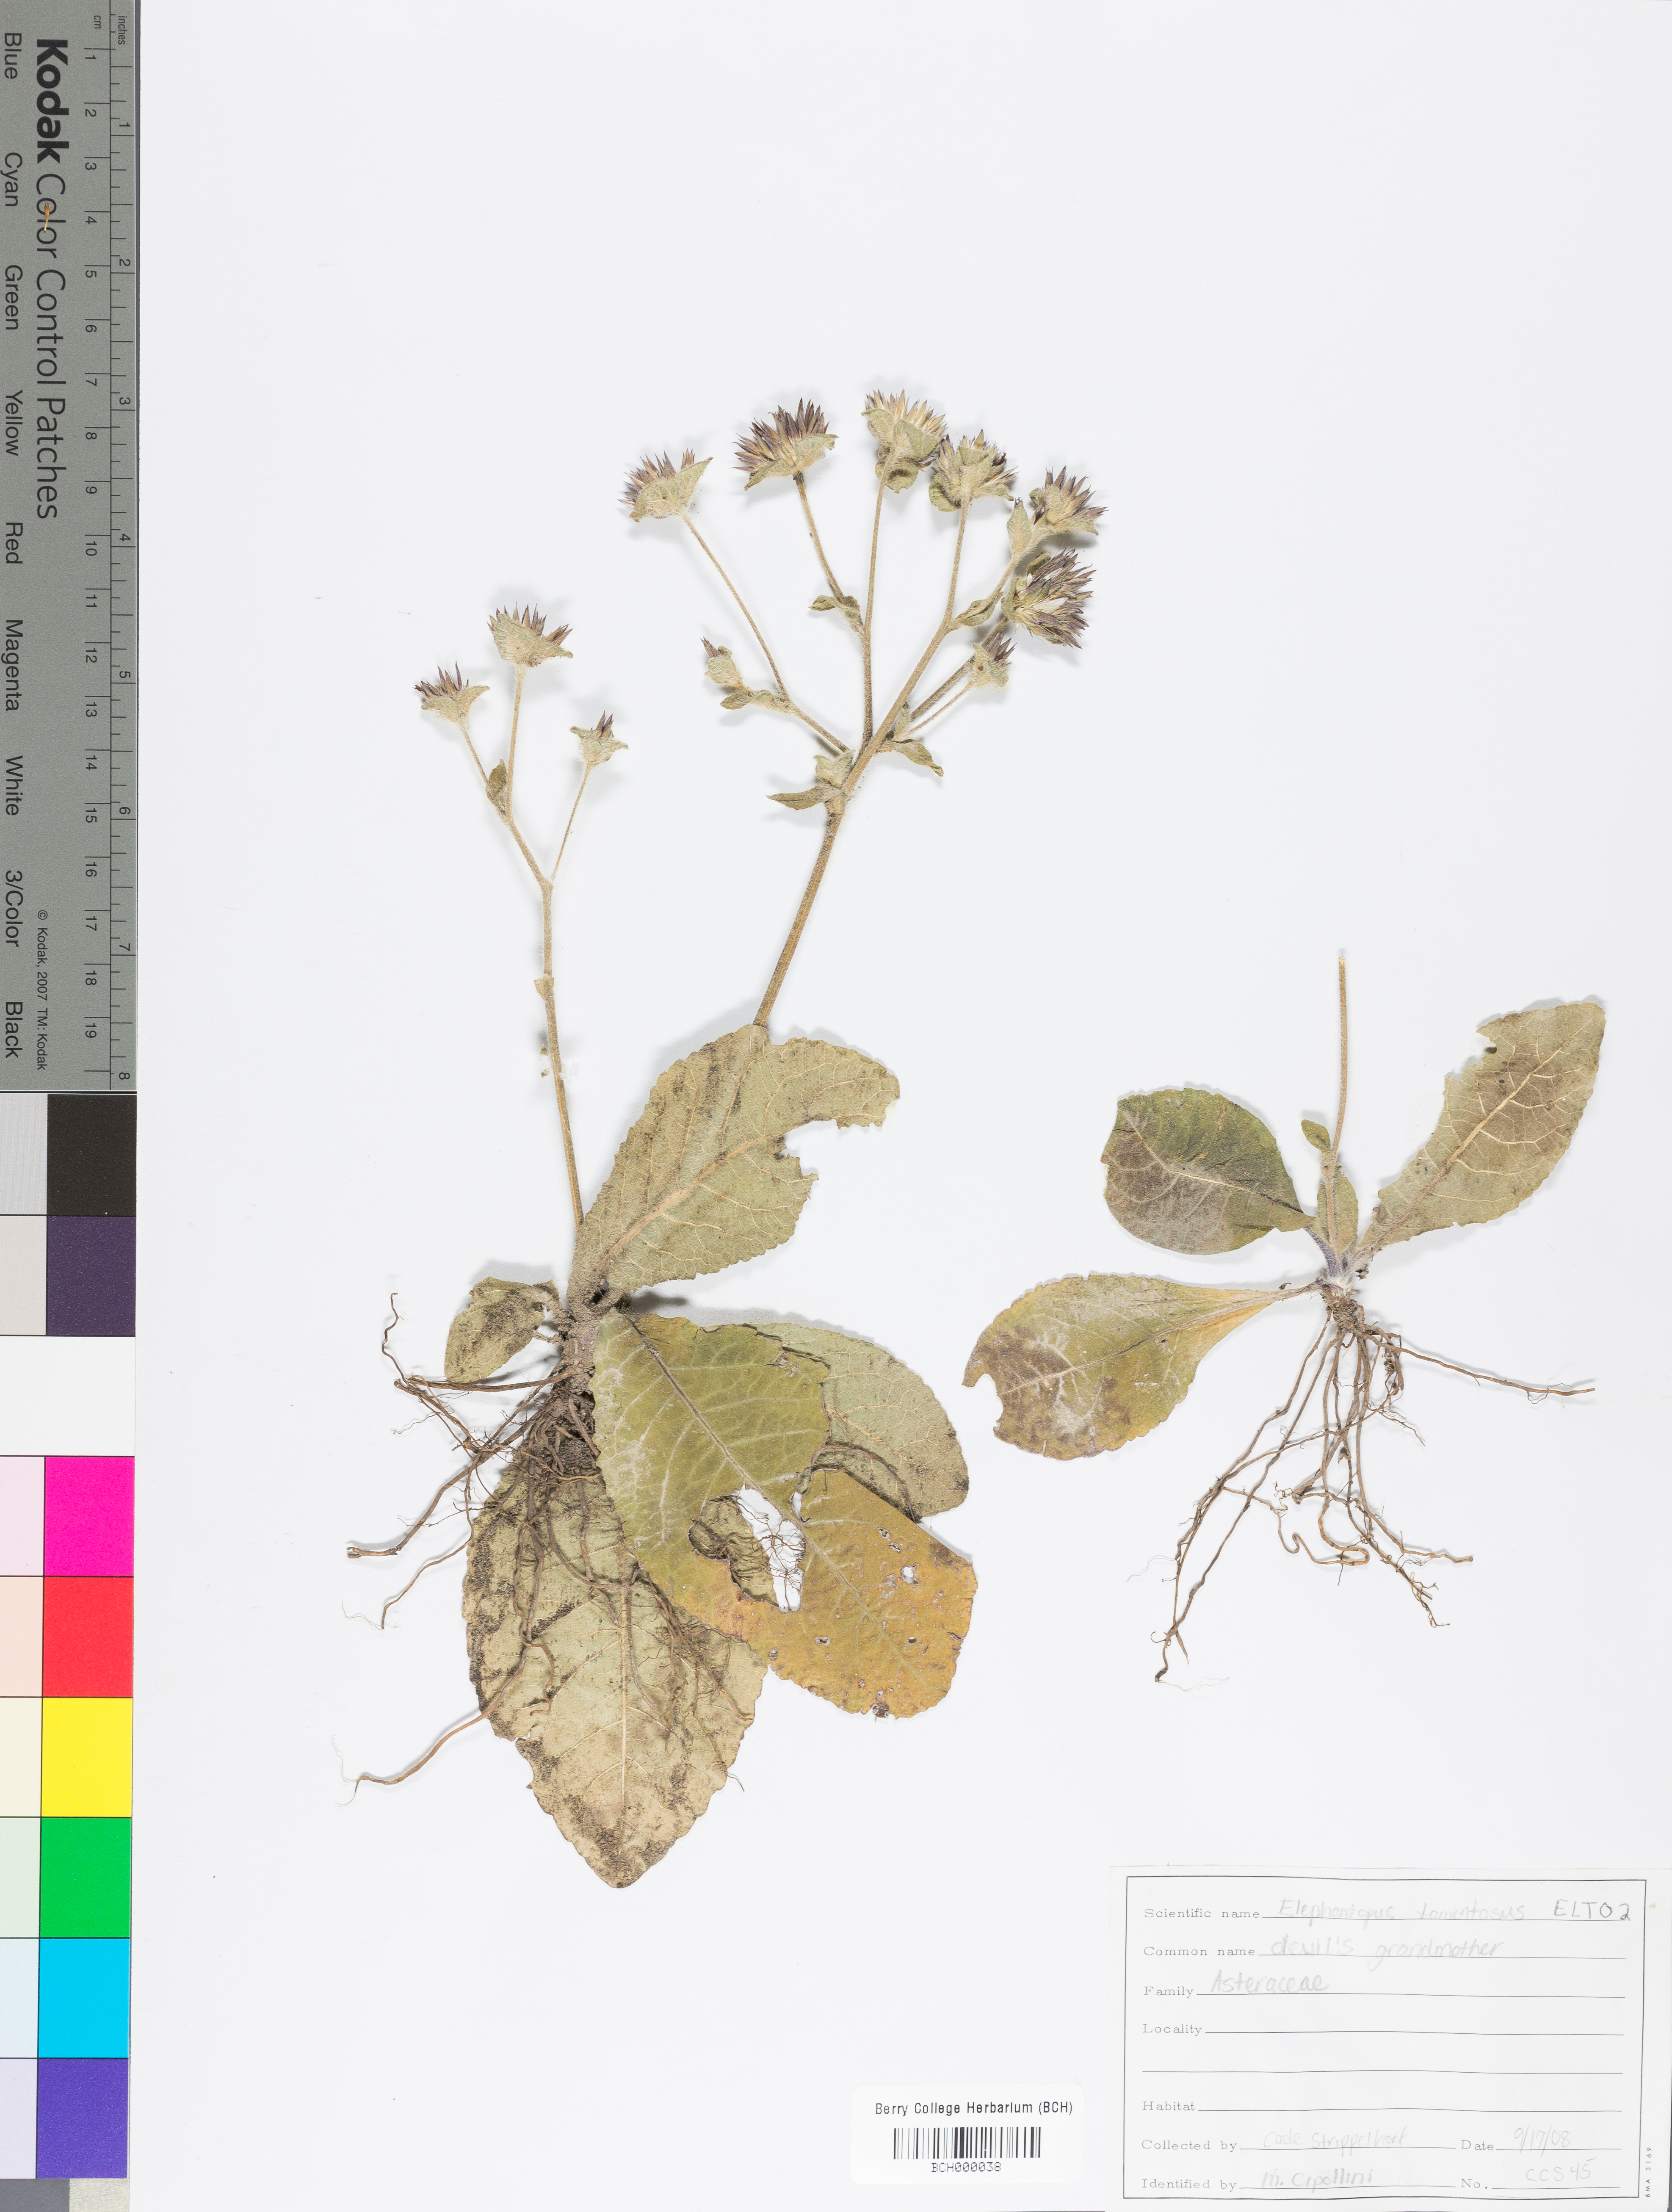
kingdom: Plantae
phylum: Tracheophyta
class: Magnoliopsida
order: Asterales
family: Asteraceae
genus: Elephantopus
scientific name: Elephantopus tomentosus
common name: Tobacco-weed
